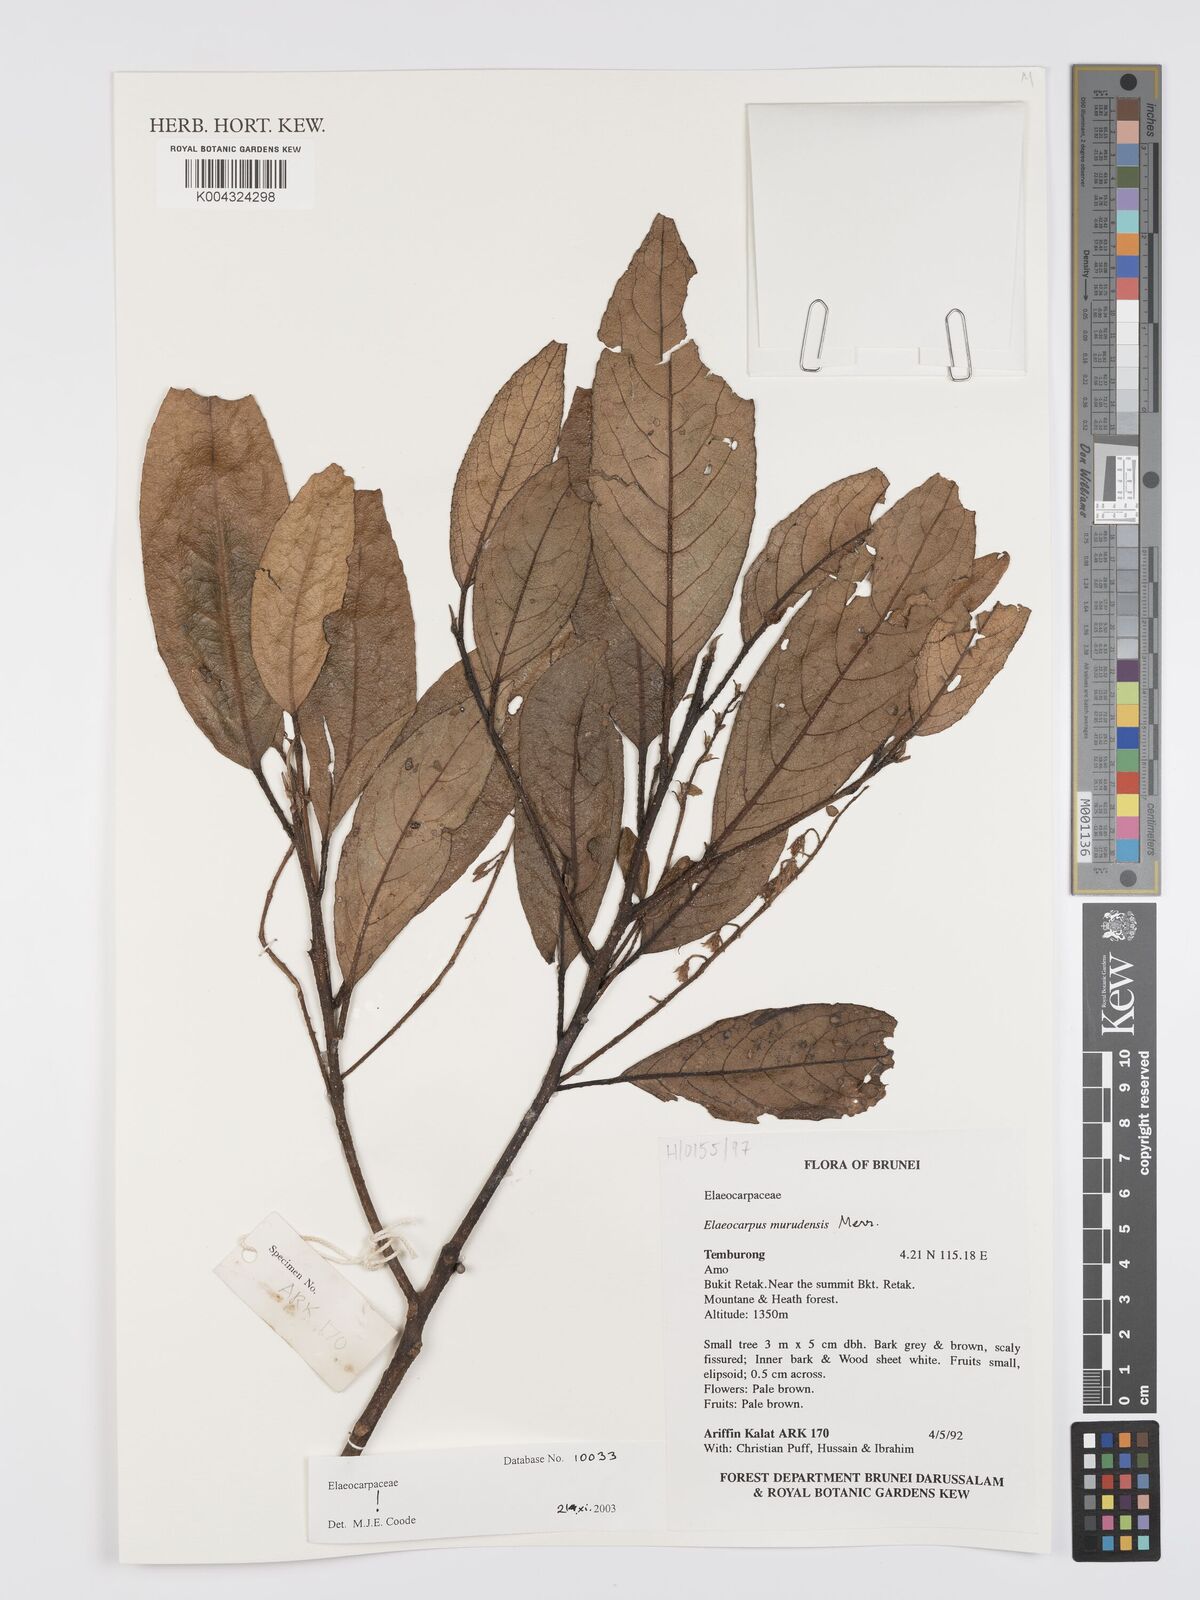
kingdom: Plantae
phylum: Tracheophyta
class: Magnoliopsida
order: Oxalidales
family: Elaeocarpaceae
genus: Elaeocarpus
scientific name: Elaeocarpus murudensis
